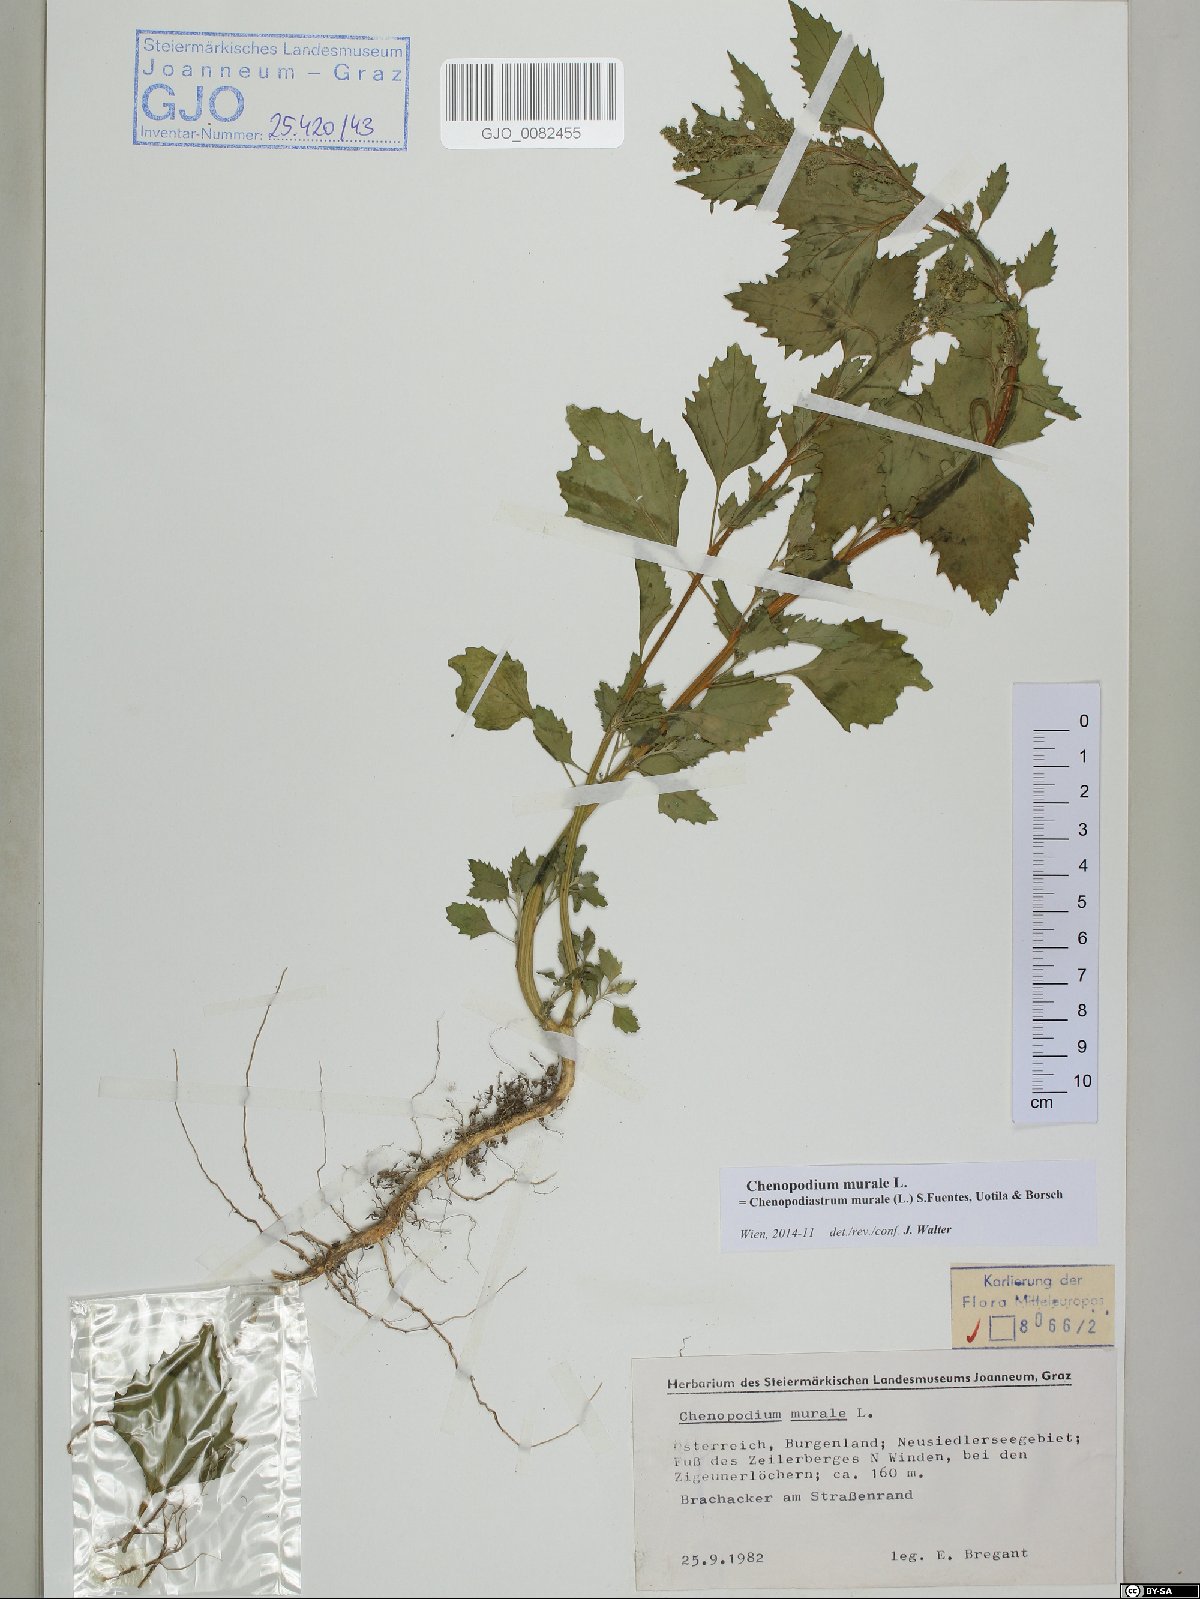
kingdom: Plantae
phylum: Tracheophyta
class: Magnoliopsida
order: Caryophyllales
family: Amaranthaceae
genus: Chenopodiastrum
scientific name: Chenopodiastrum murale
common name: Sowbane
